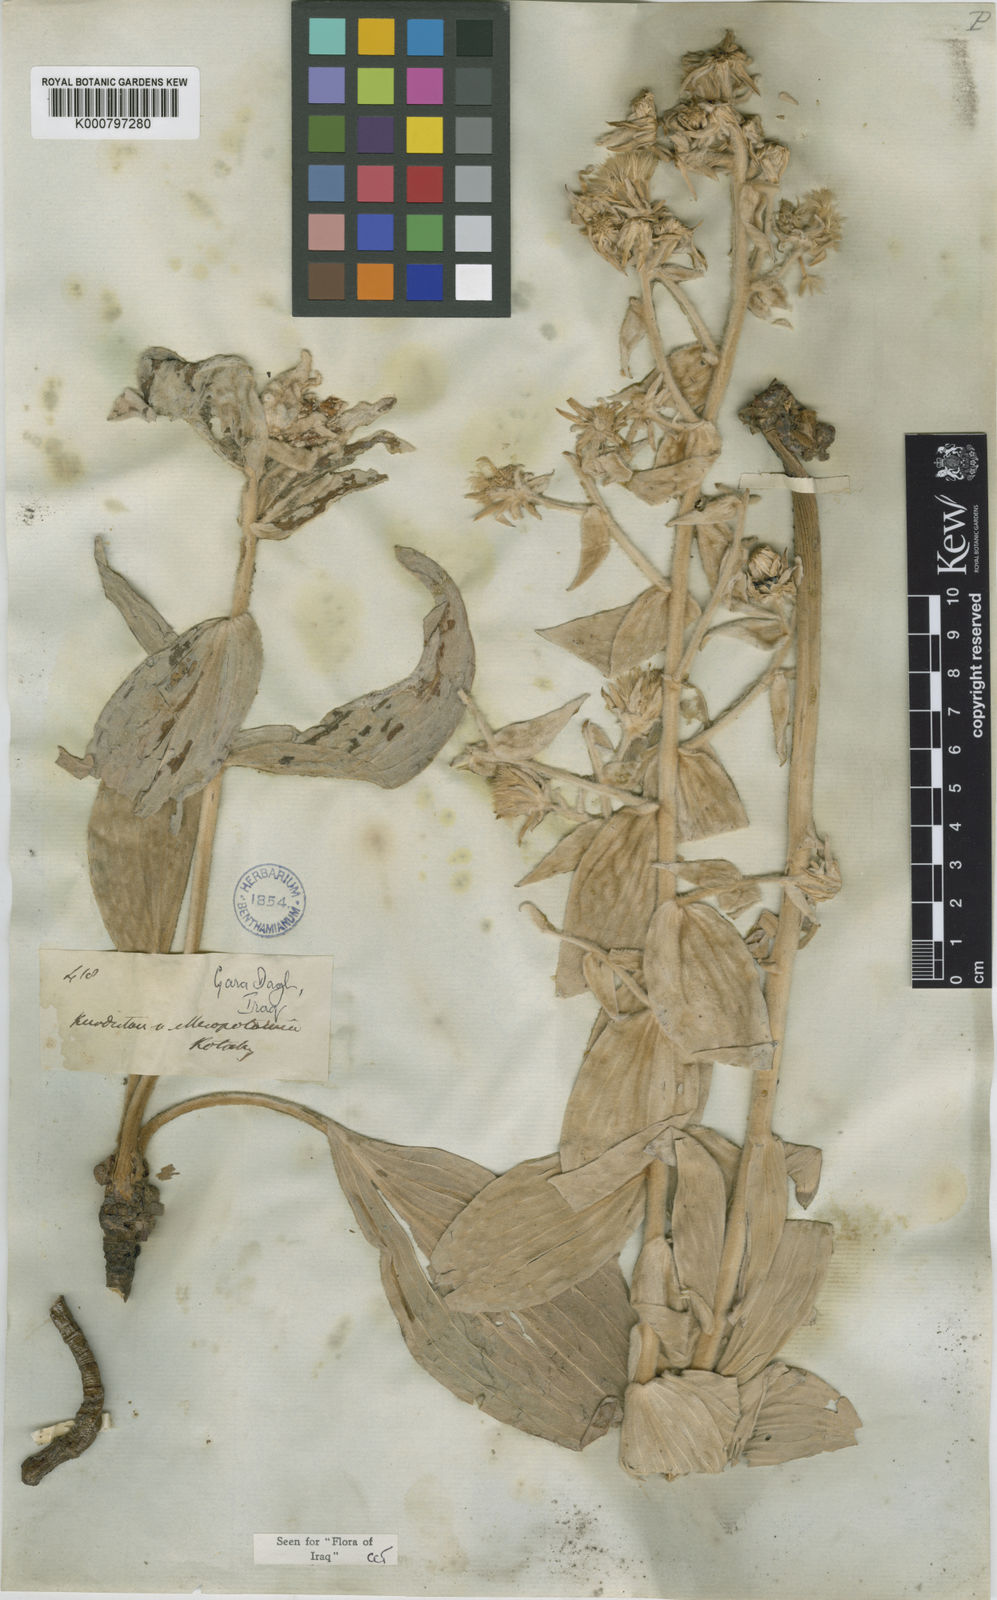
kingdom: Plantae
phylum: Tracheophyta
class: Magnoliopsida
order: Asterales
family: Asteraceae
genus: Guneria
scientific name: Guneria veratrifolia
